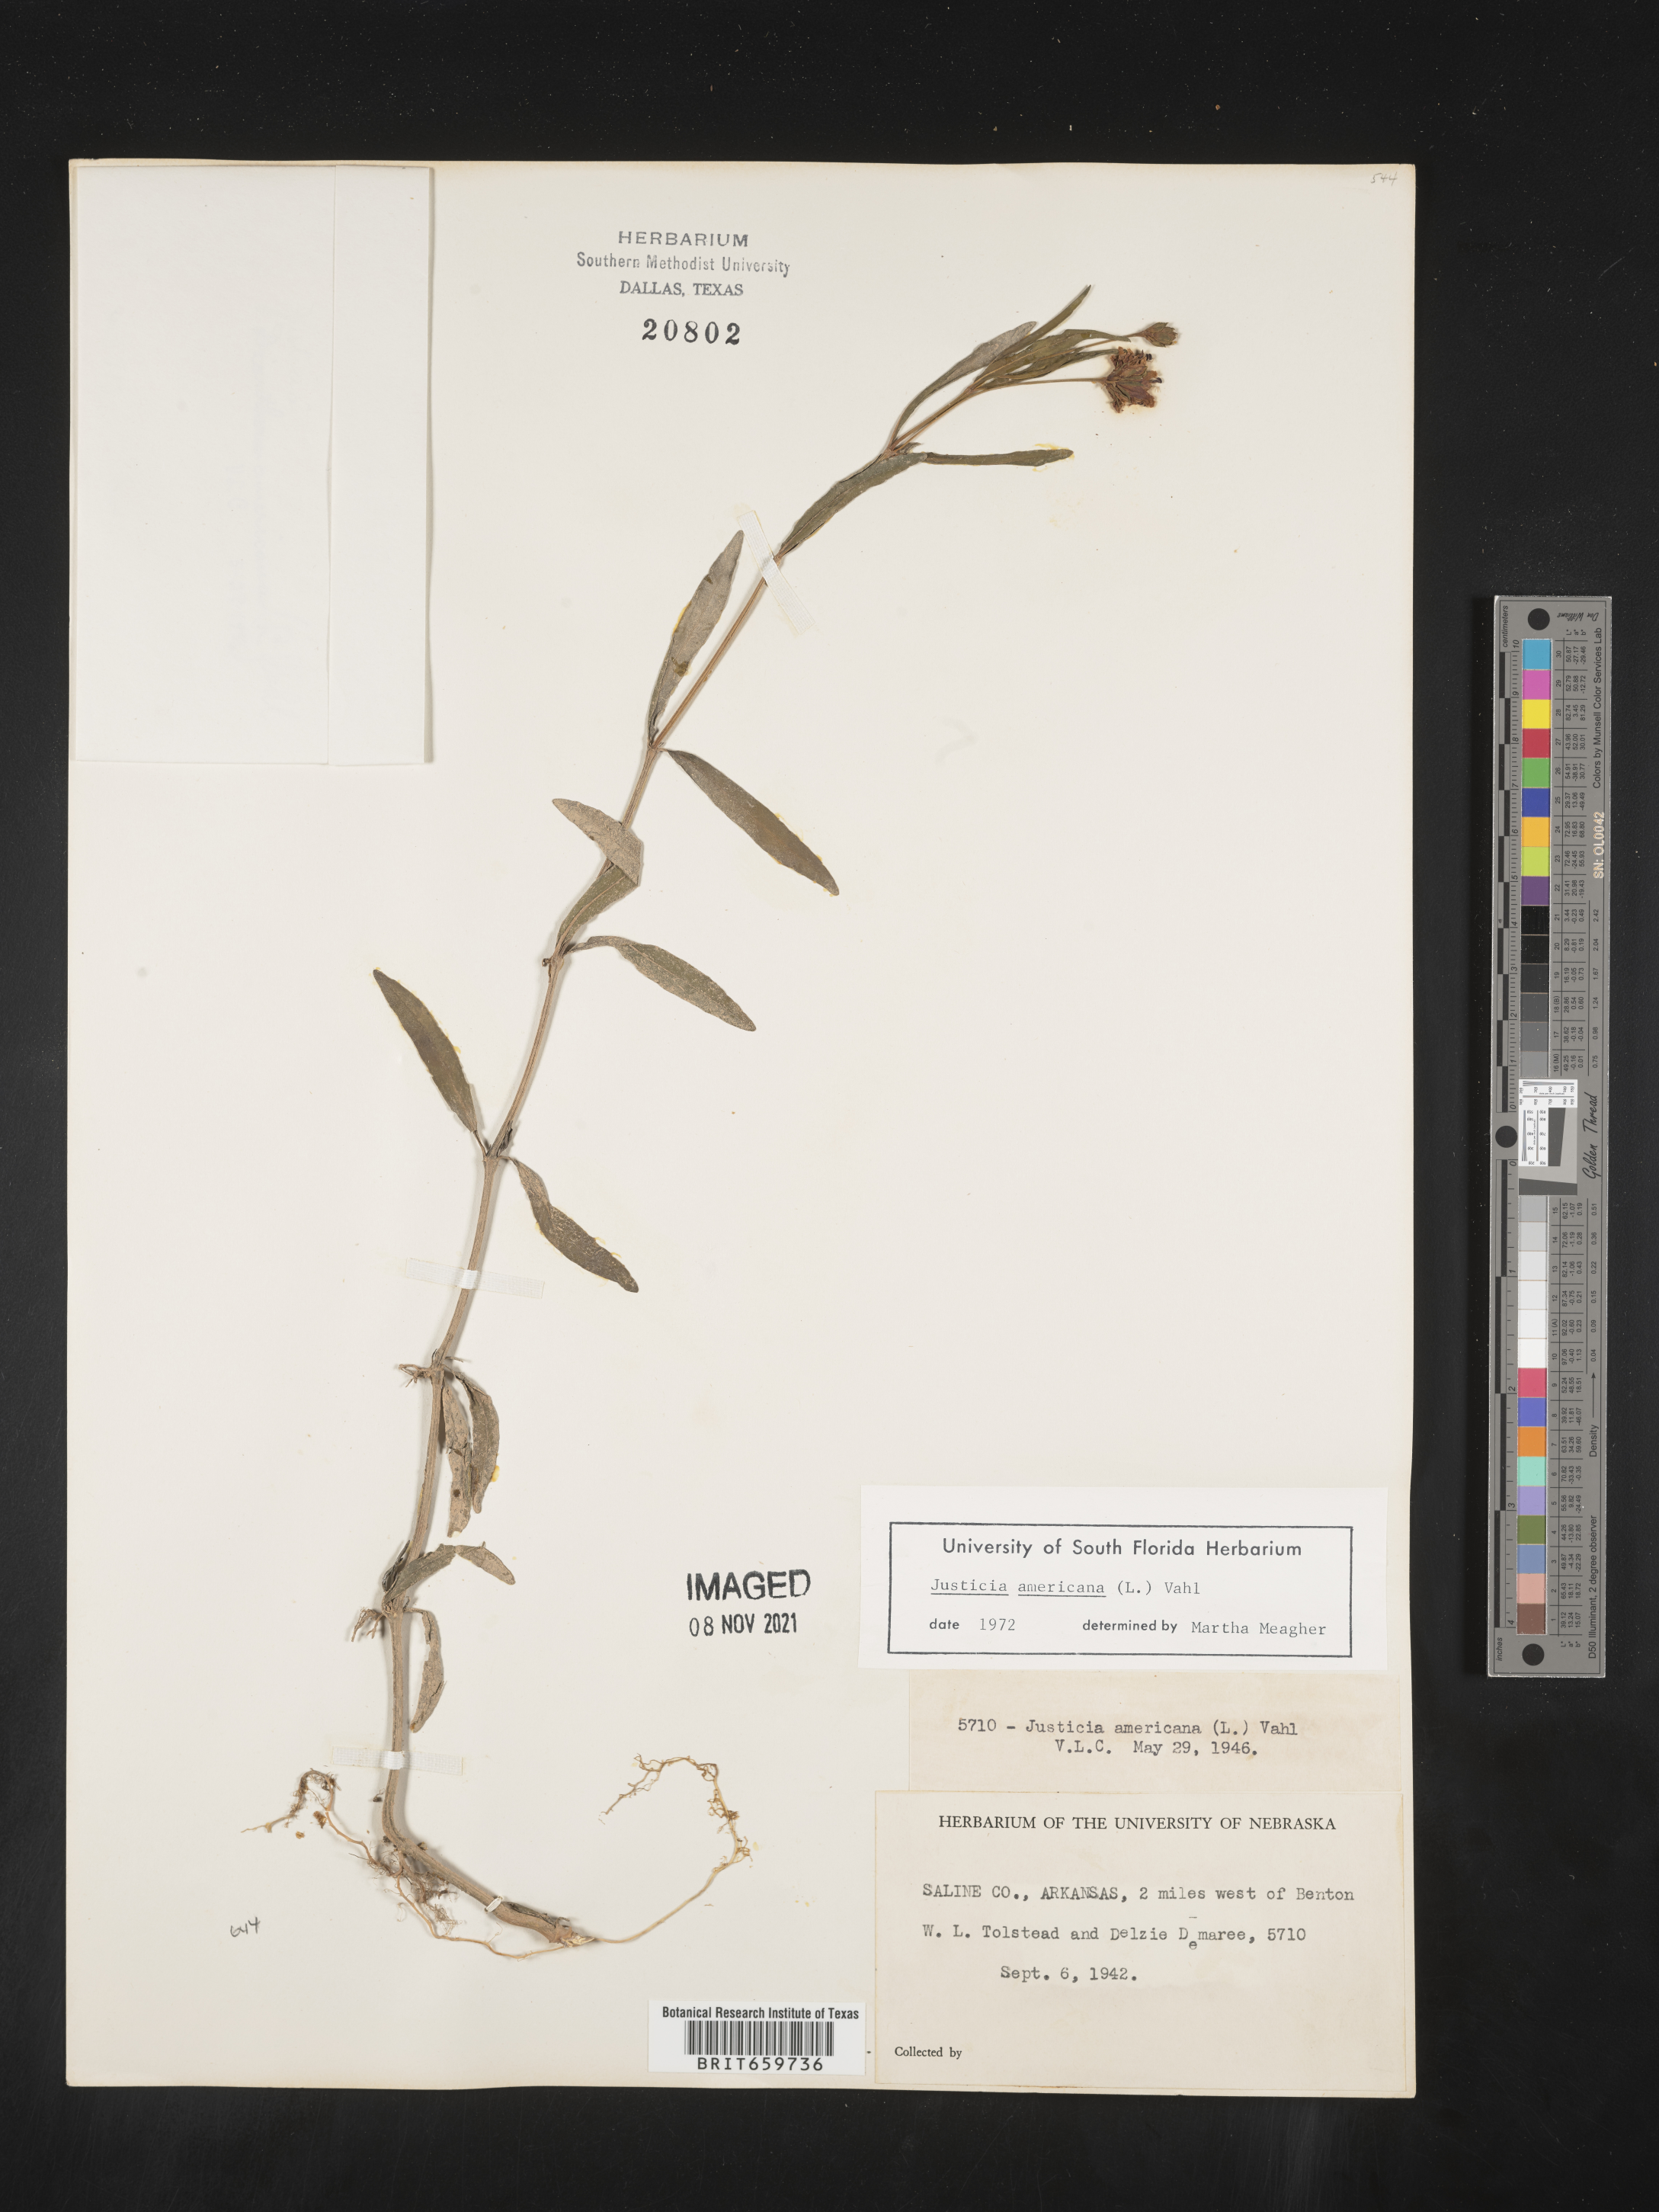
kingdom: Plantae
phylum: Tracheophyta
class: Magnoliopsida
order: Lamiales
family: Acanthaceae
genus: Dianthera
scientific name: Dianthera americana
